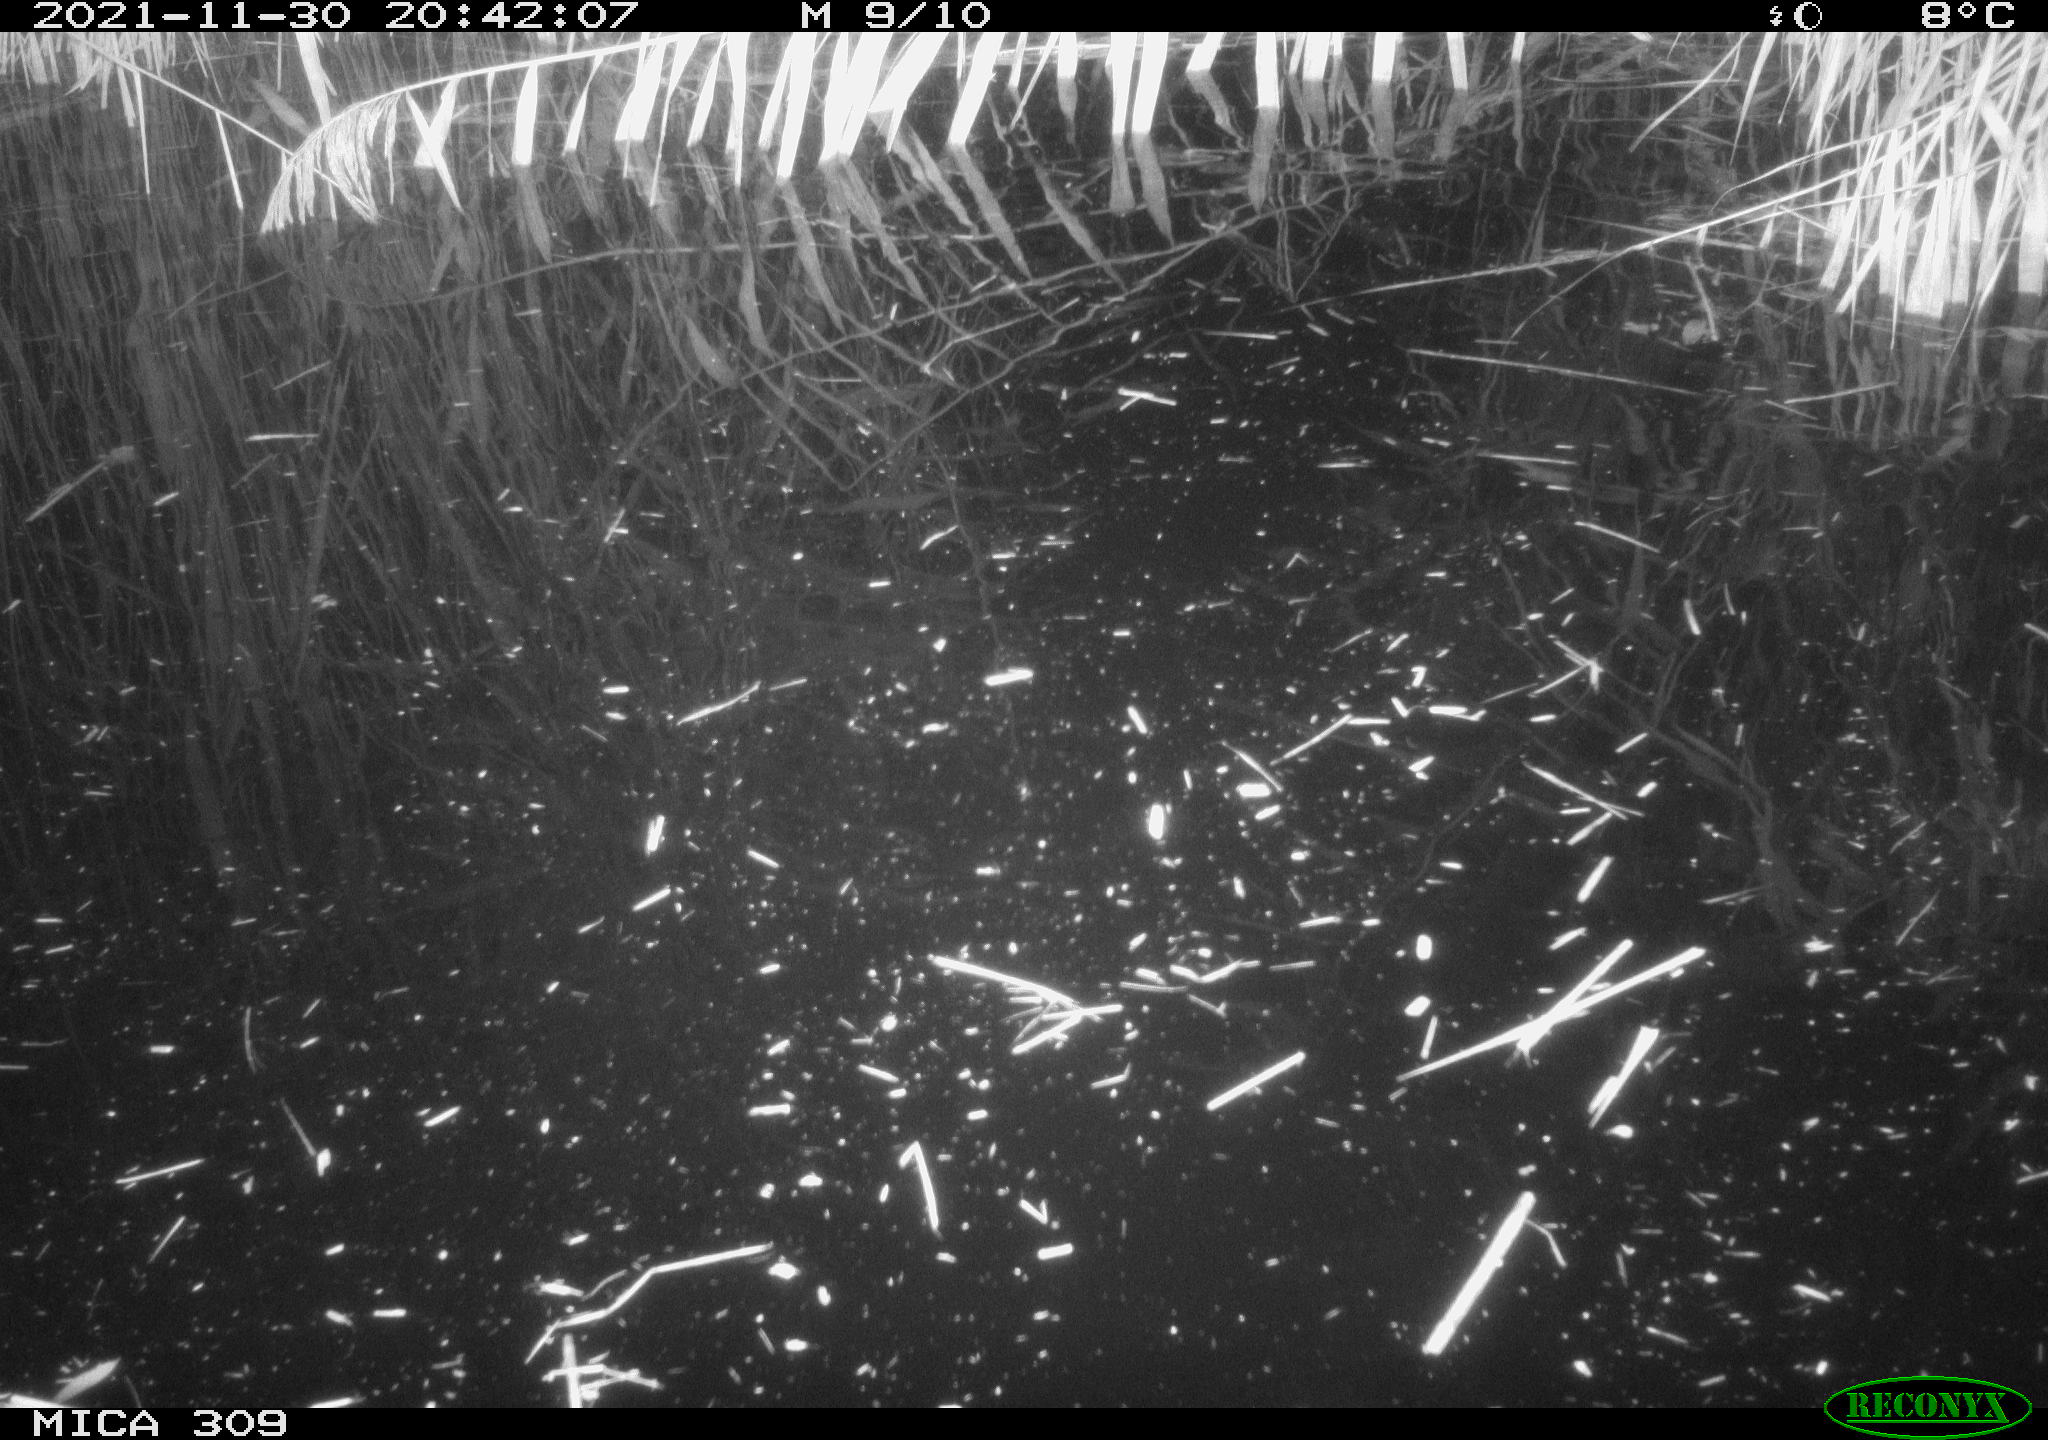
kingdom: Animalia
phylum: Chordata
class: Mammalia
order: Rodentia
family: Muridae
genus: Rattus
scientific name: Rattus norvegicus
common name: Brown rat
